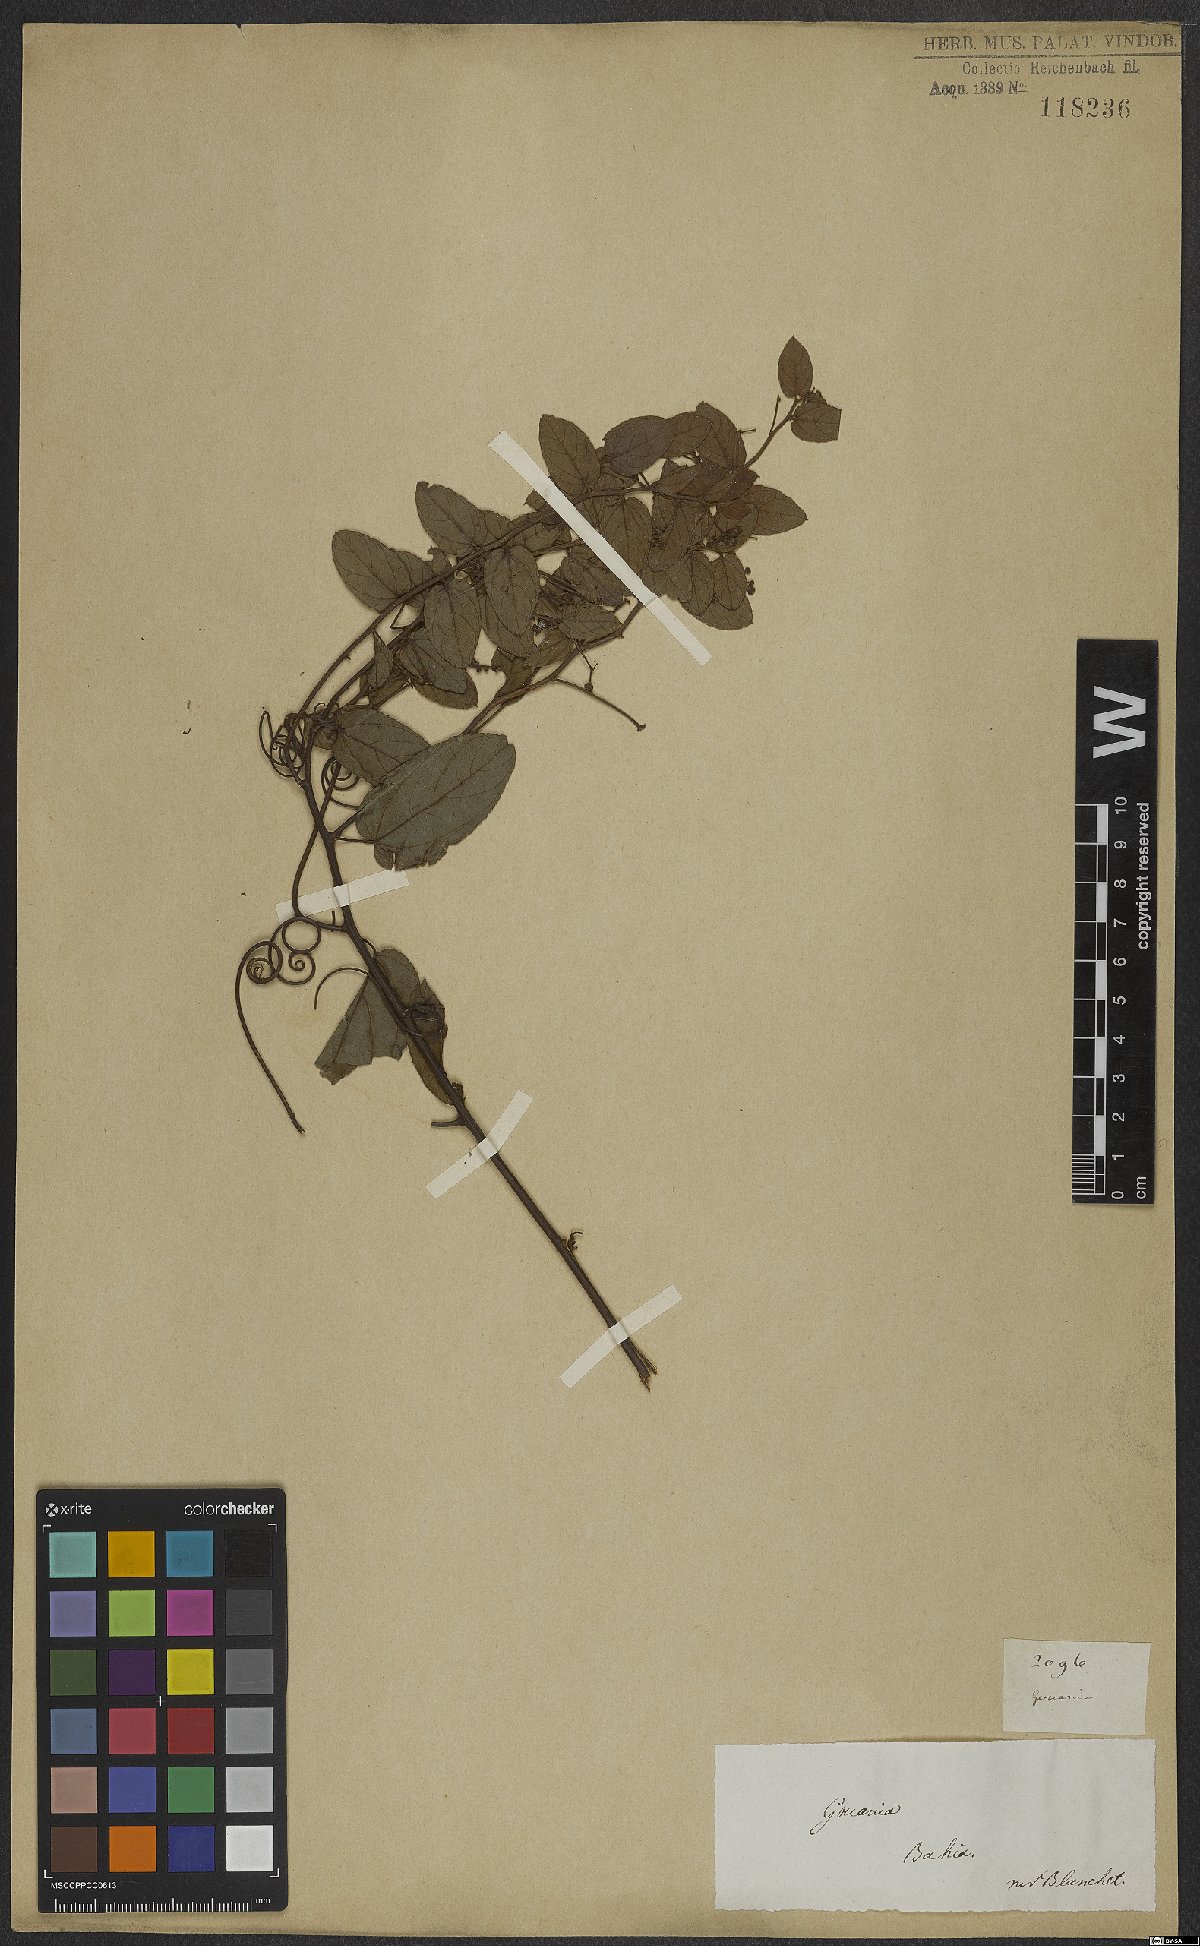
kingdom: Plantae
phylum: Tracheophyta
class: Magnoliopsida
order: Rosales
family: Rhamnaceae
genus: Reissekia
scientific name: Reissekia smilacina
